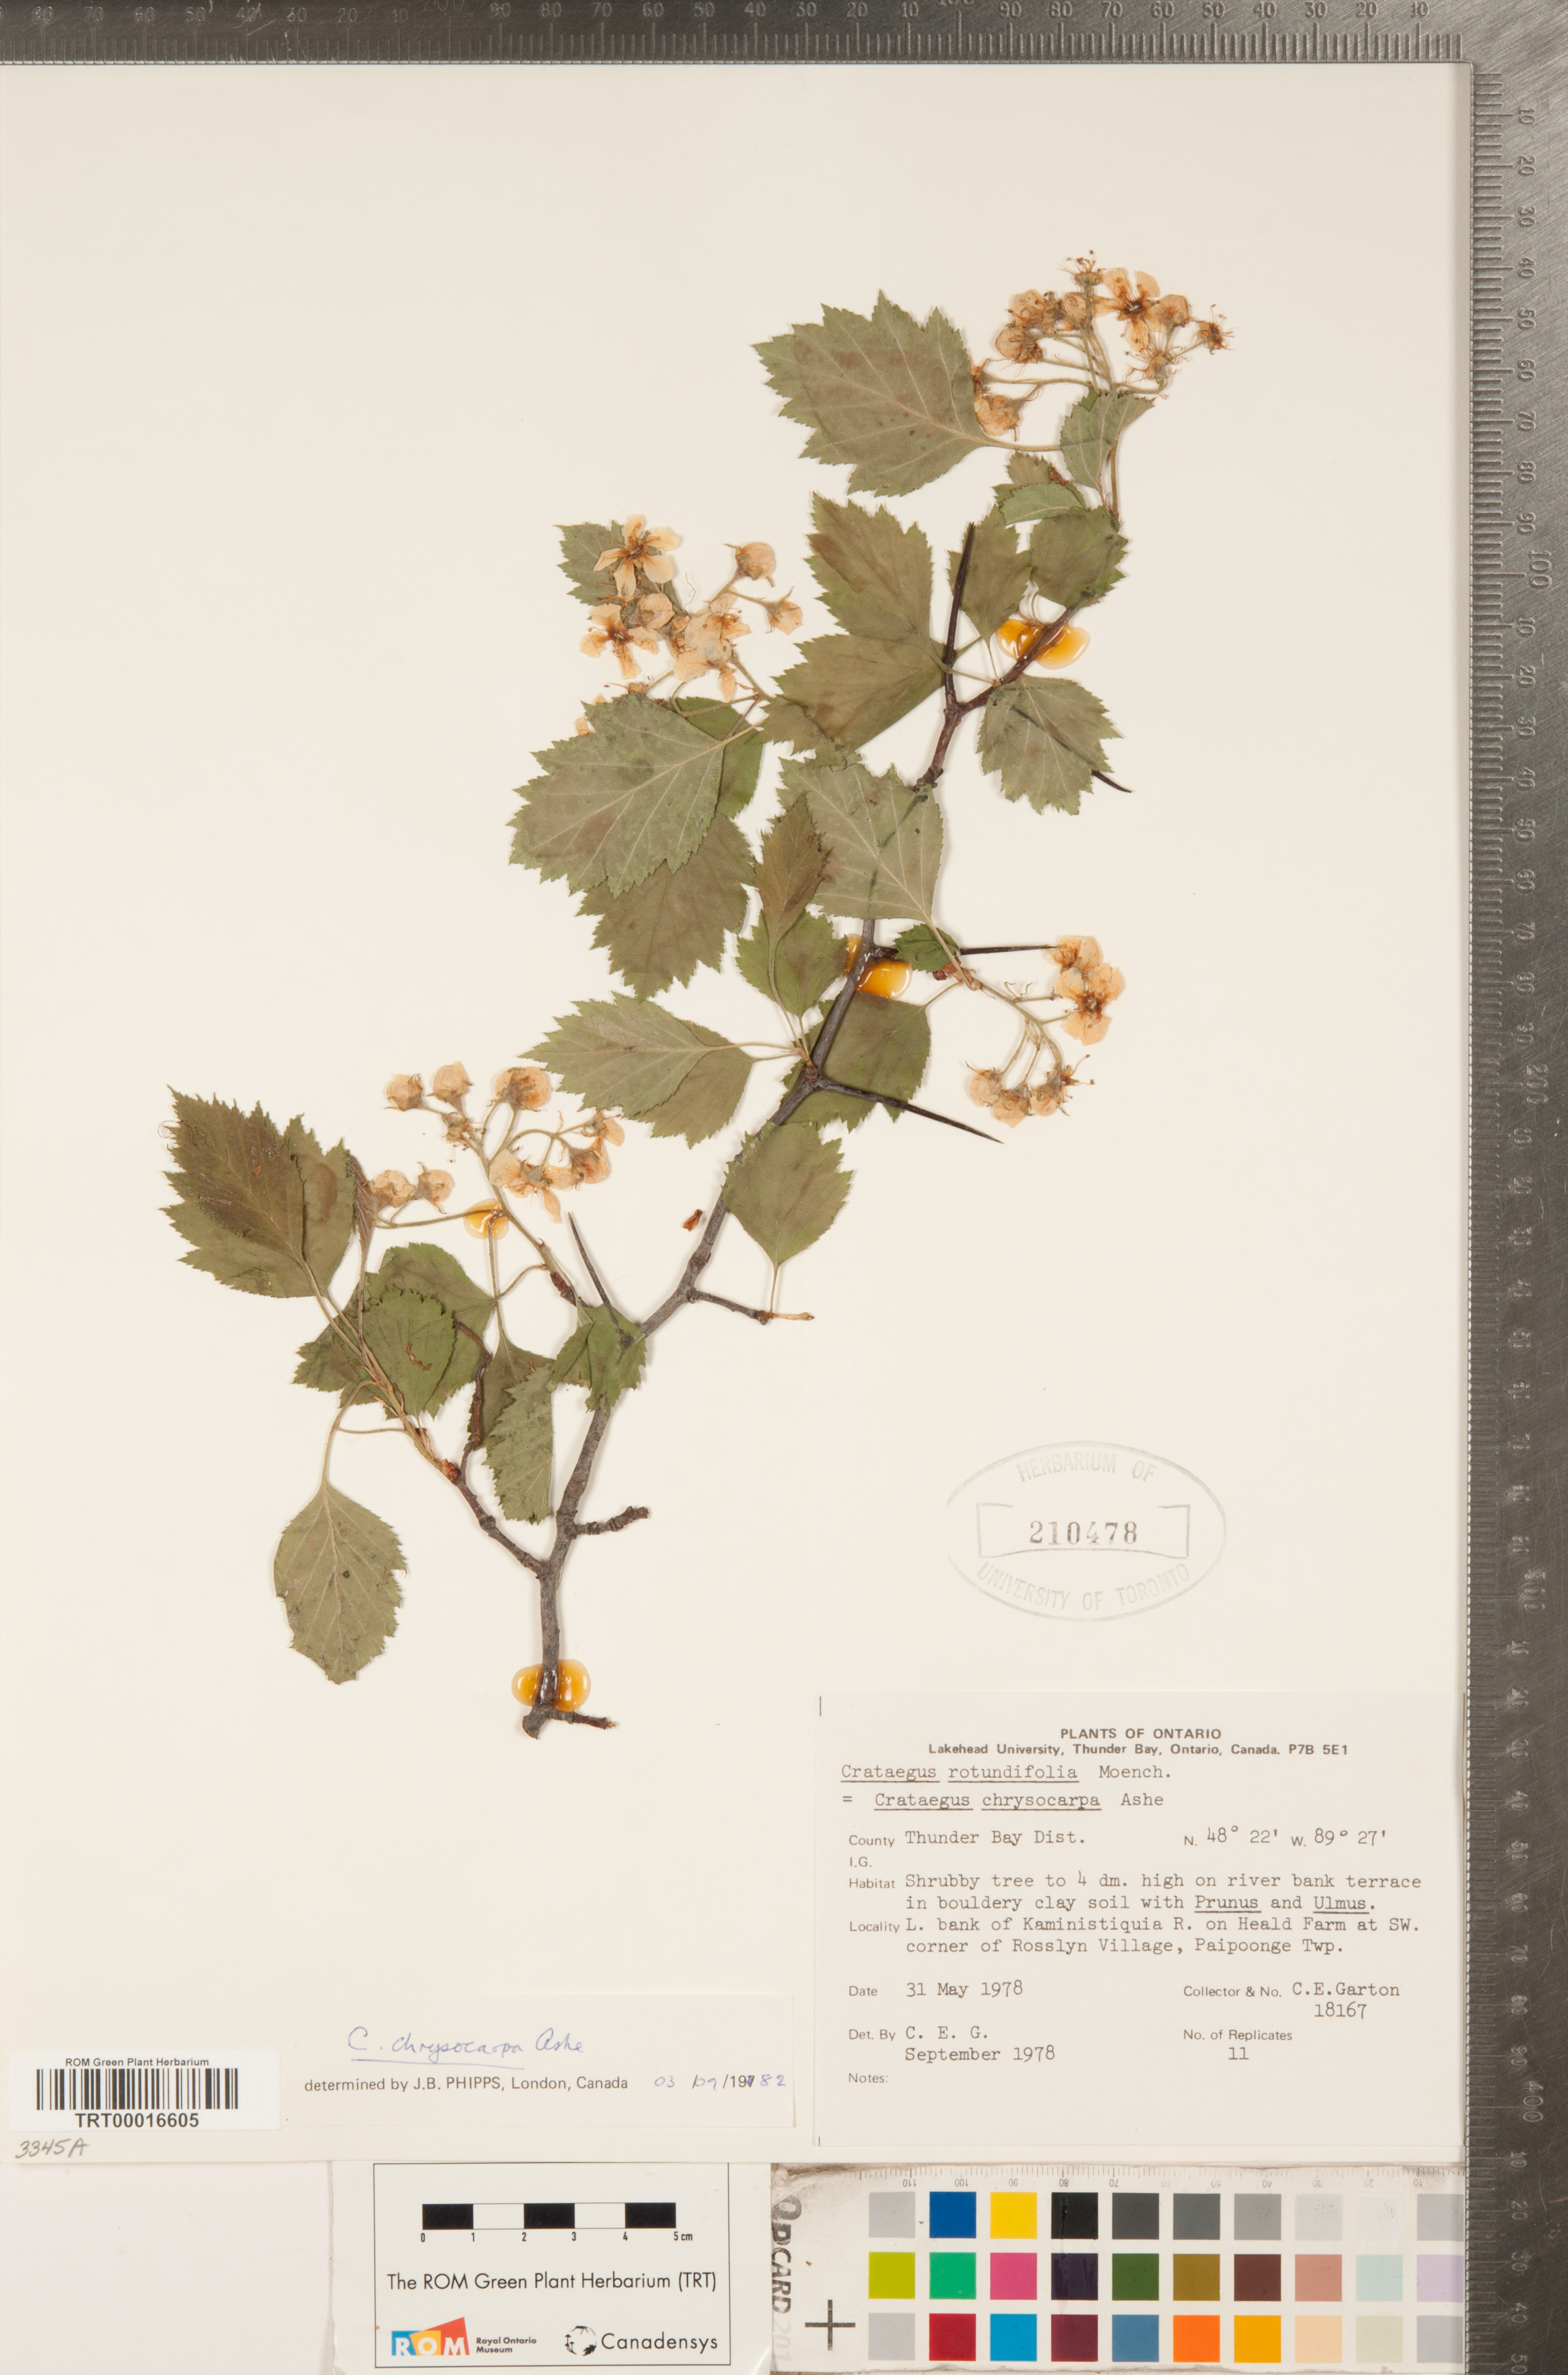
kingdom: Plantae
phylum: Tracheophyta
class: Magnoliopsida
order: Rosales
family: Rosaceae
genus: Crataegus
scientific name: Crataegus chrysocarpa
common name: Fire-berry hawthorn
